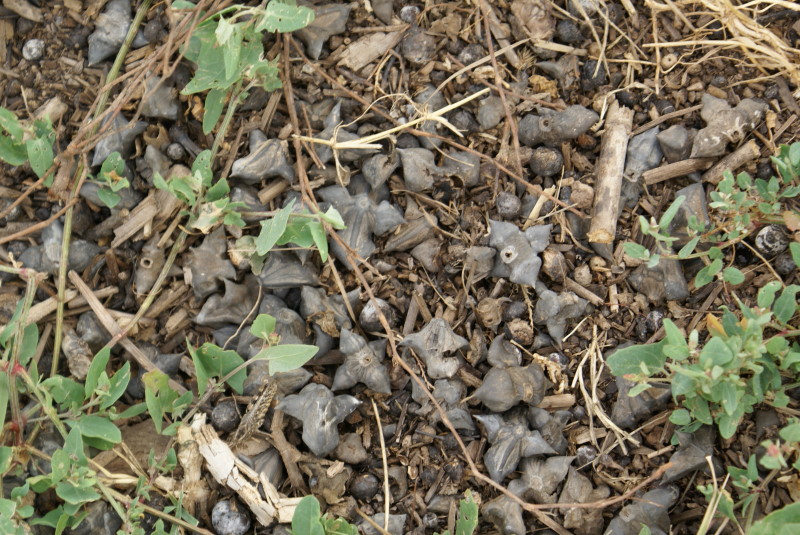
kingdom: Plantae
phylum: Tracheophyta
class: Magnoliopsida
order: Myrtales
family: Lythraceae
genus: Trapa
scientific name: Trapa natans
